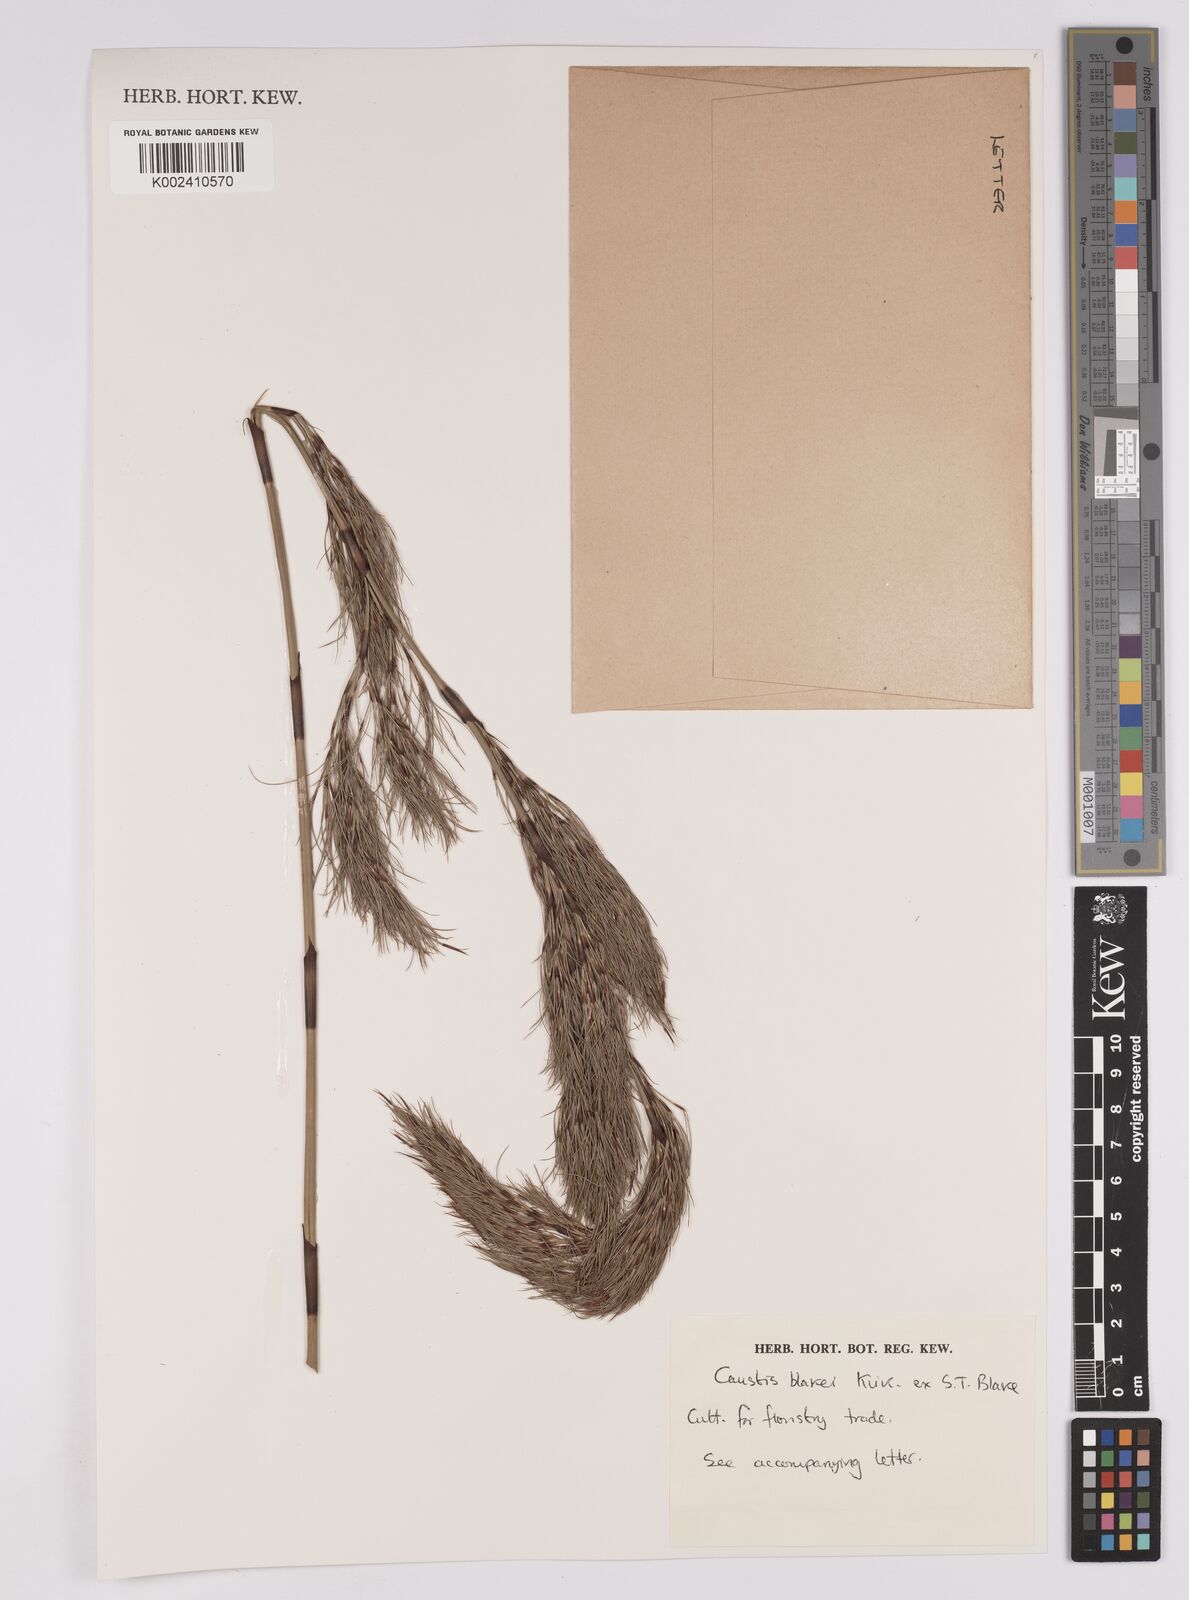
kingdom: Plantae
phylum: Tracheophyta
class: Liliopsida
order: Poales
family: Cyperaceae
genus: Caustis
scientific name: Caustis blakei
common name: Foxtail-fern
